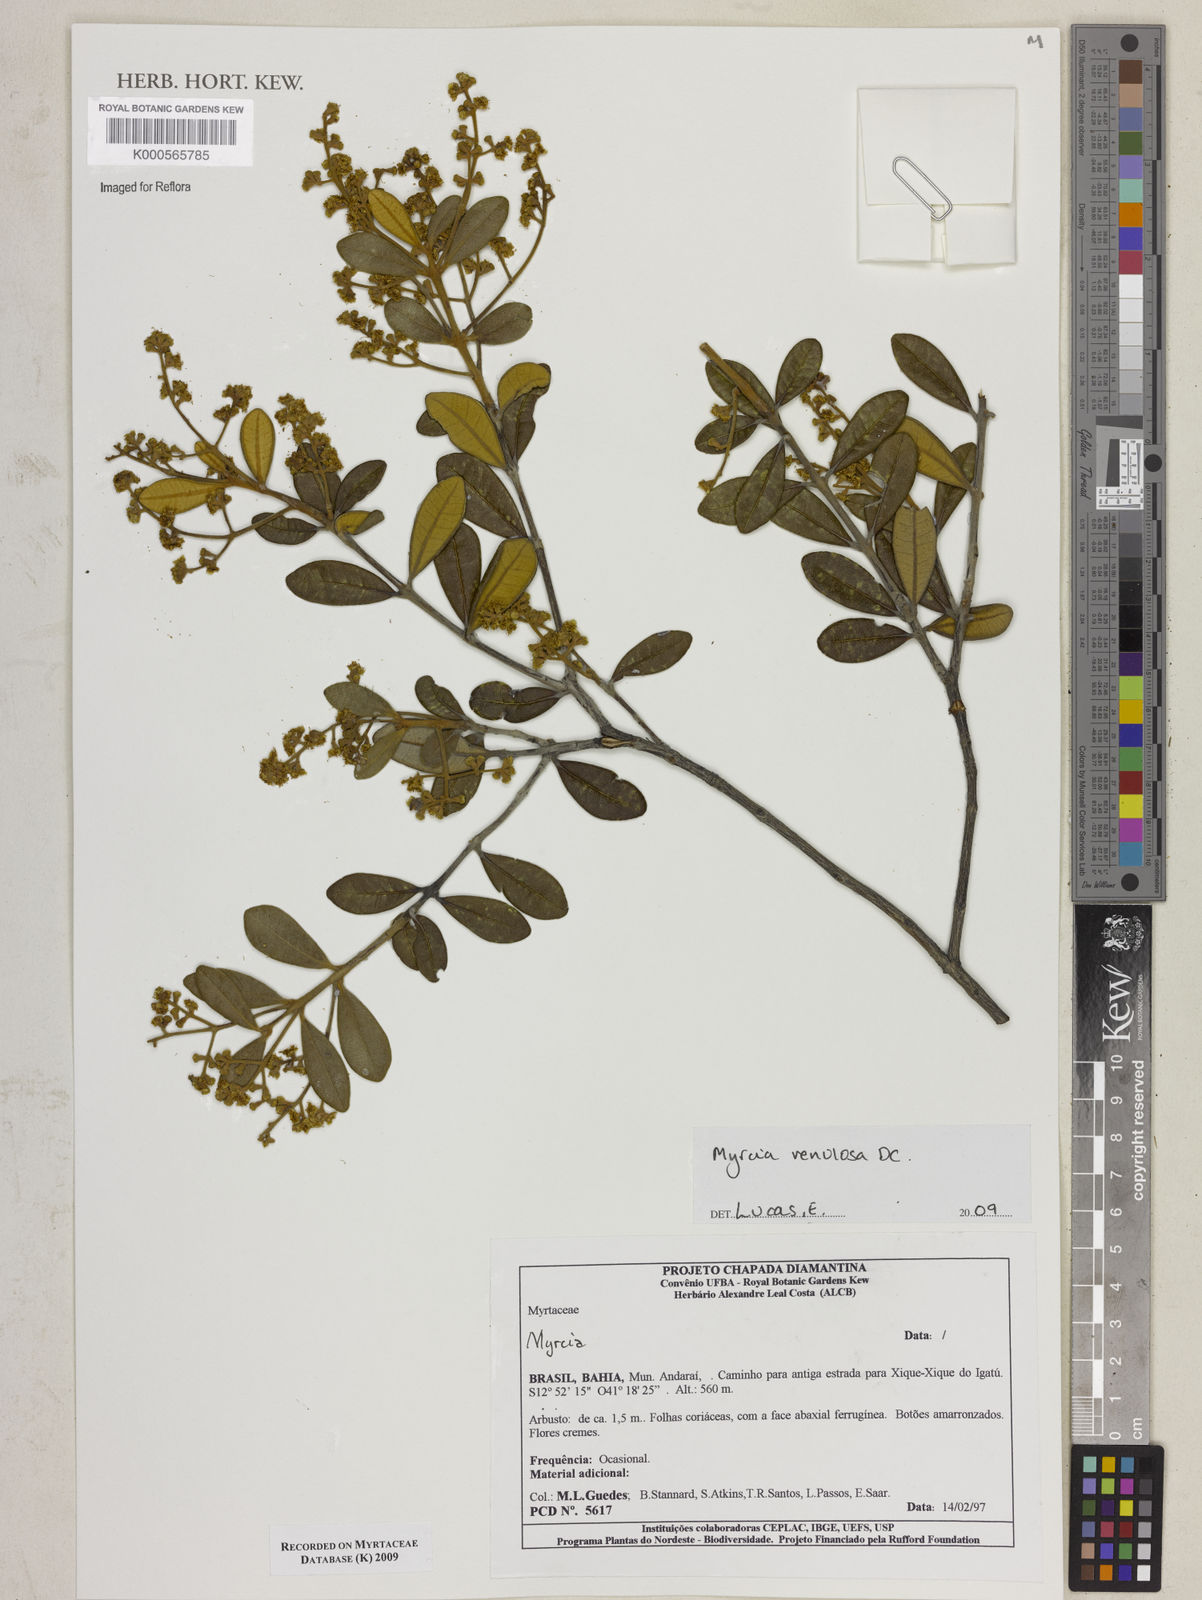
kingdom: Plantae
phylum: Tracheophyta
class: Magnoliopsida
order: Myrtales
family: Myrtaceae
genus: Myrcia
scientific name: Myrcia venulosa
